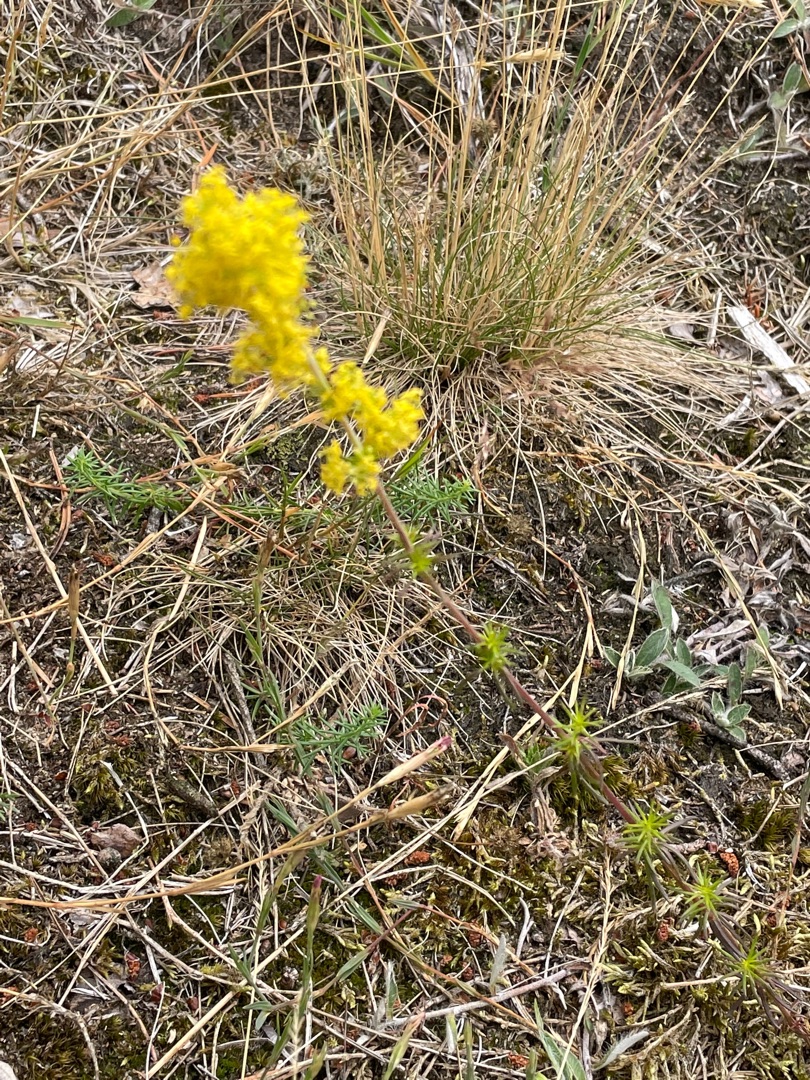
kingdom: Plantae
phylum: Tracheophyta
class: Magnoliopsida
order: Gentianales
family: Rubiaceae
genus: Galium
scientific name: Galium verum
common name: Gul snerre
